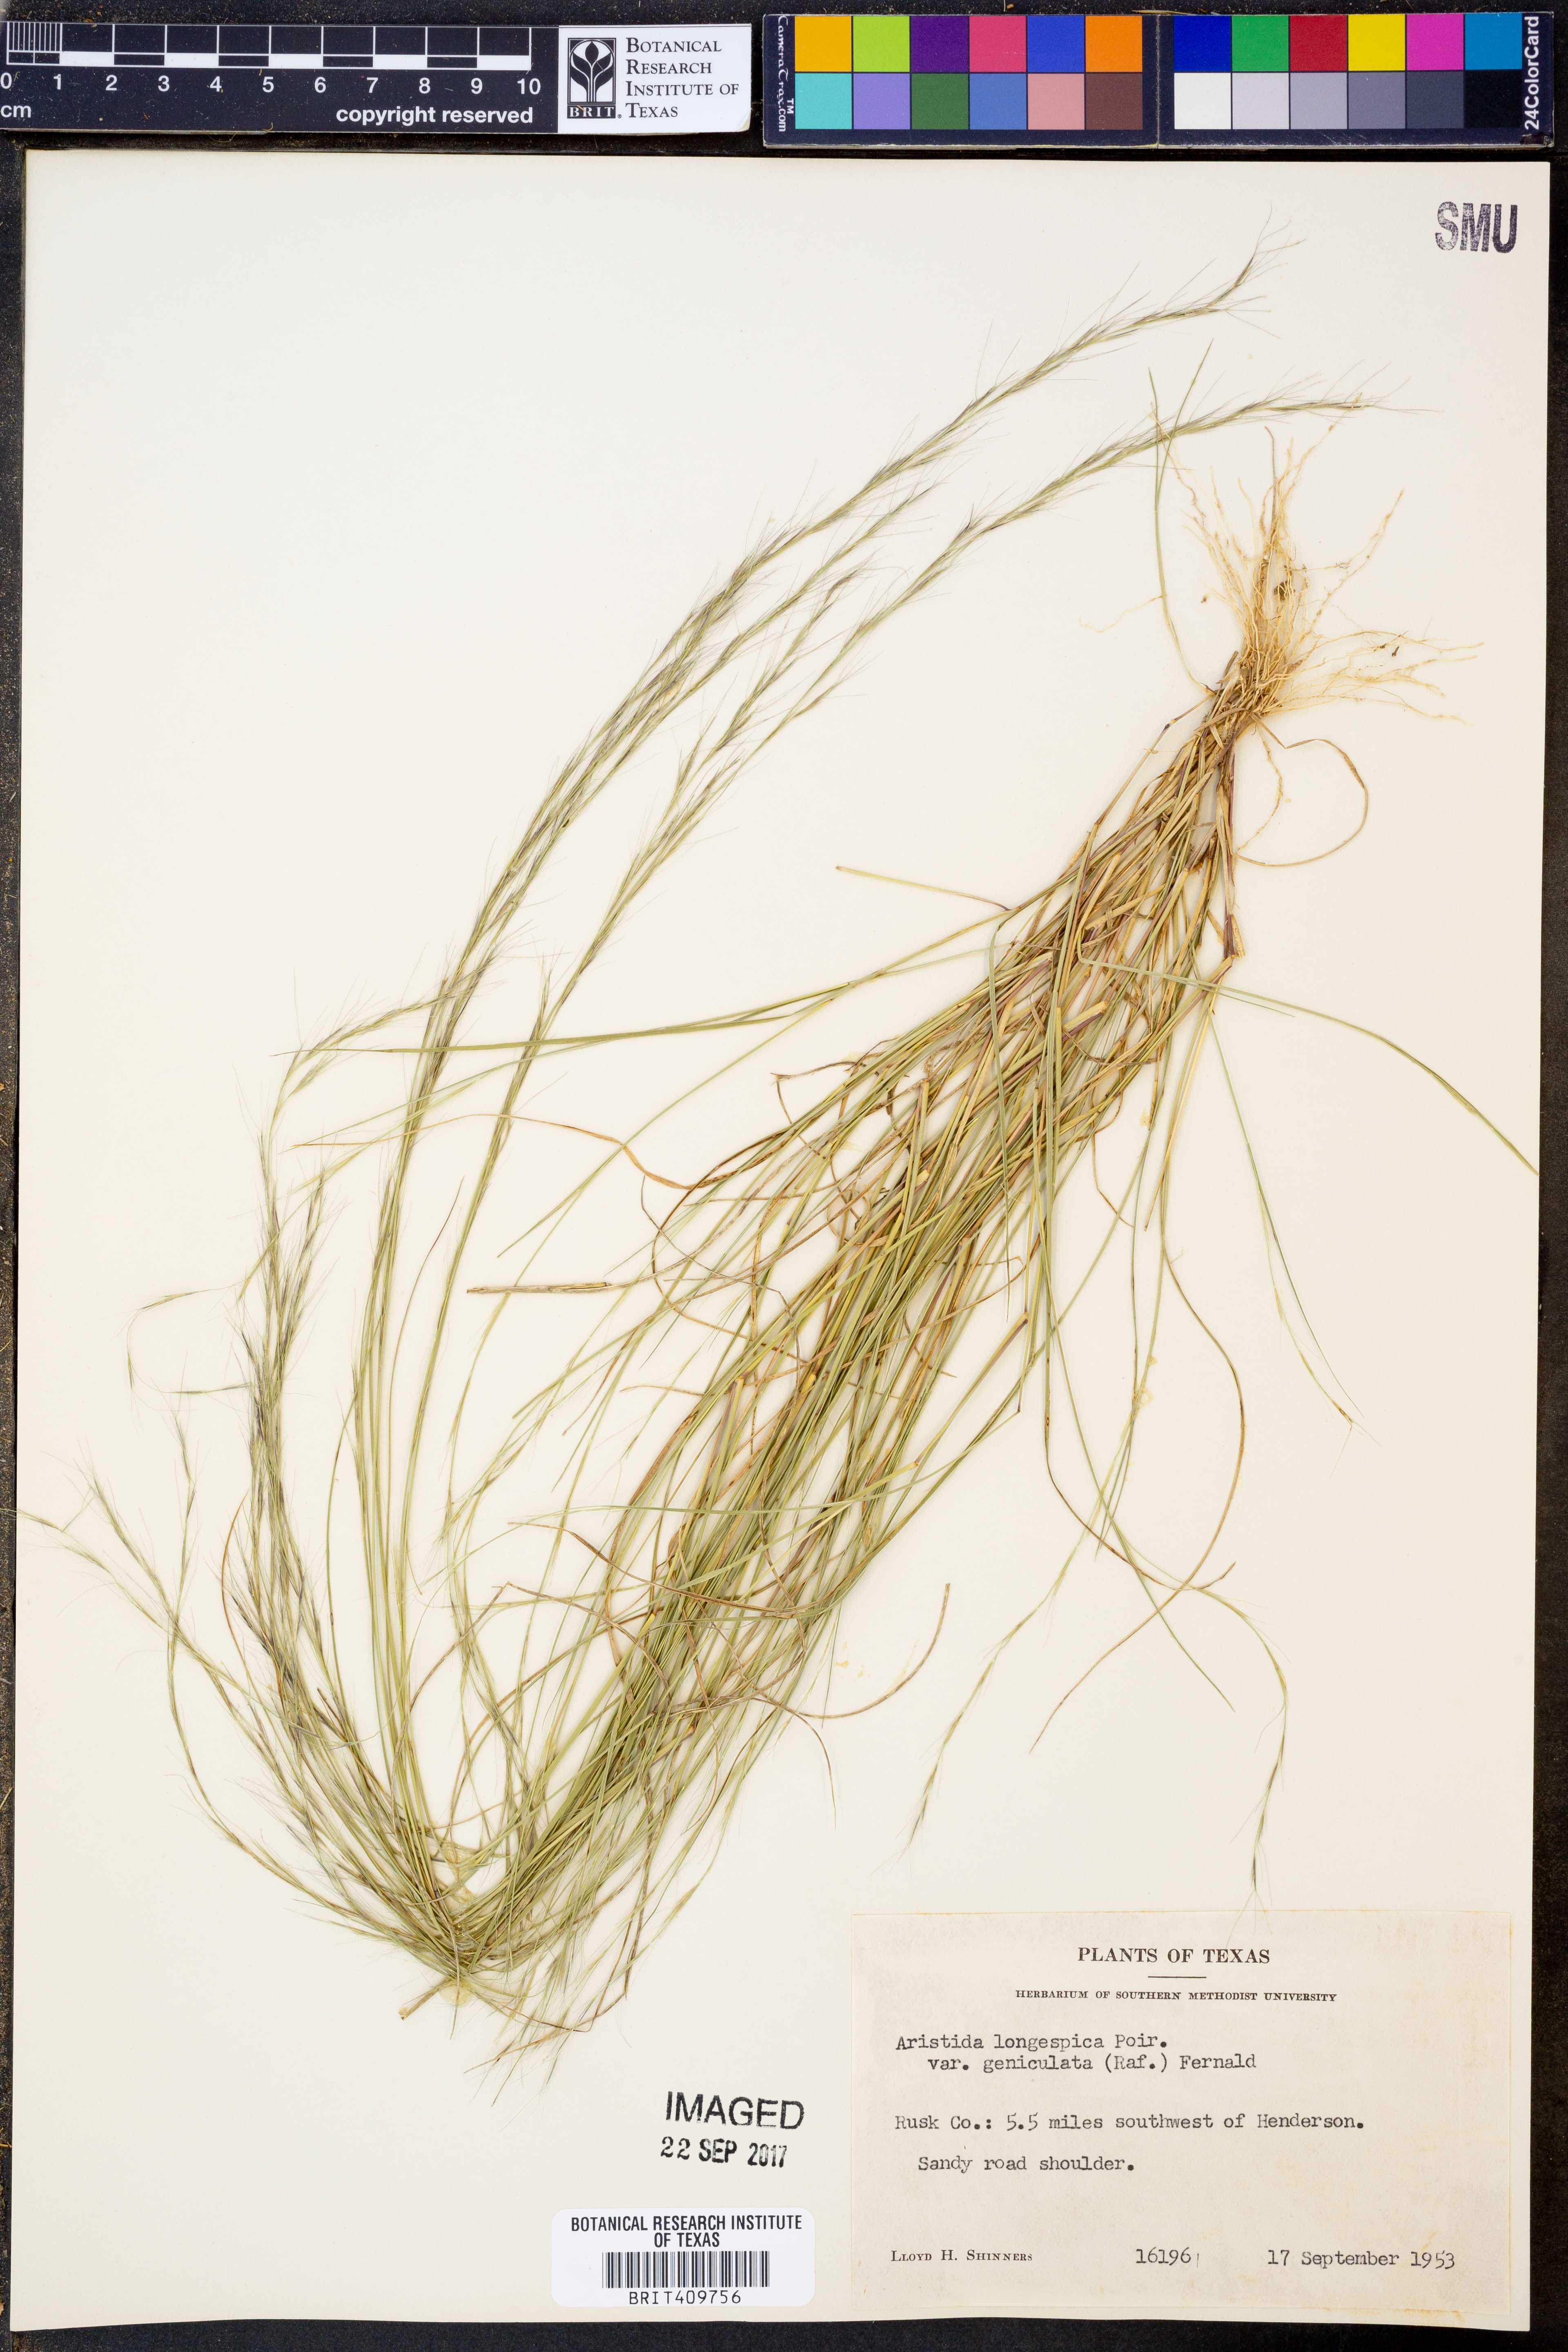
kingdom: Plantae
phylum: Tracheophyta
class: Liliopsida
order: Poales
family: Poaceae
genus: Aristida
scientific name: Aristida longespica
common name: Long-spiked triple-awned grass
